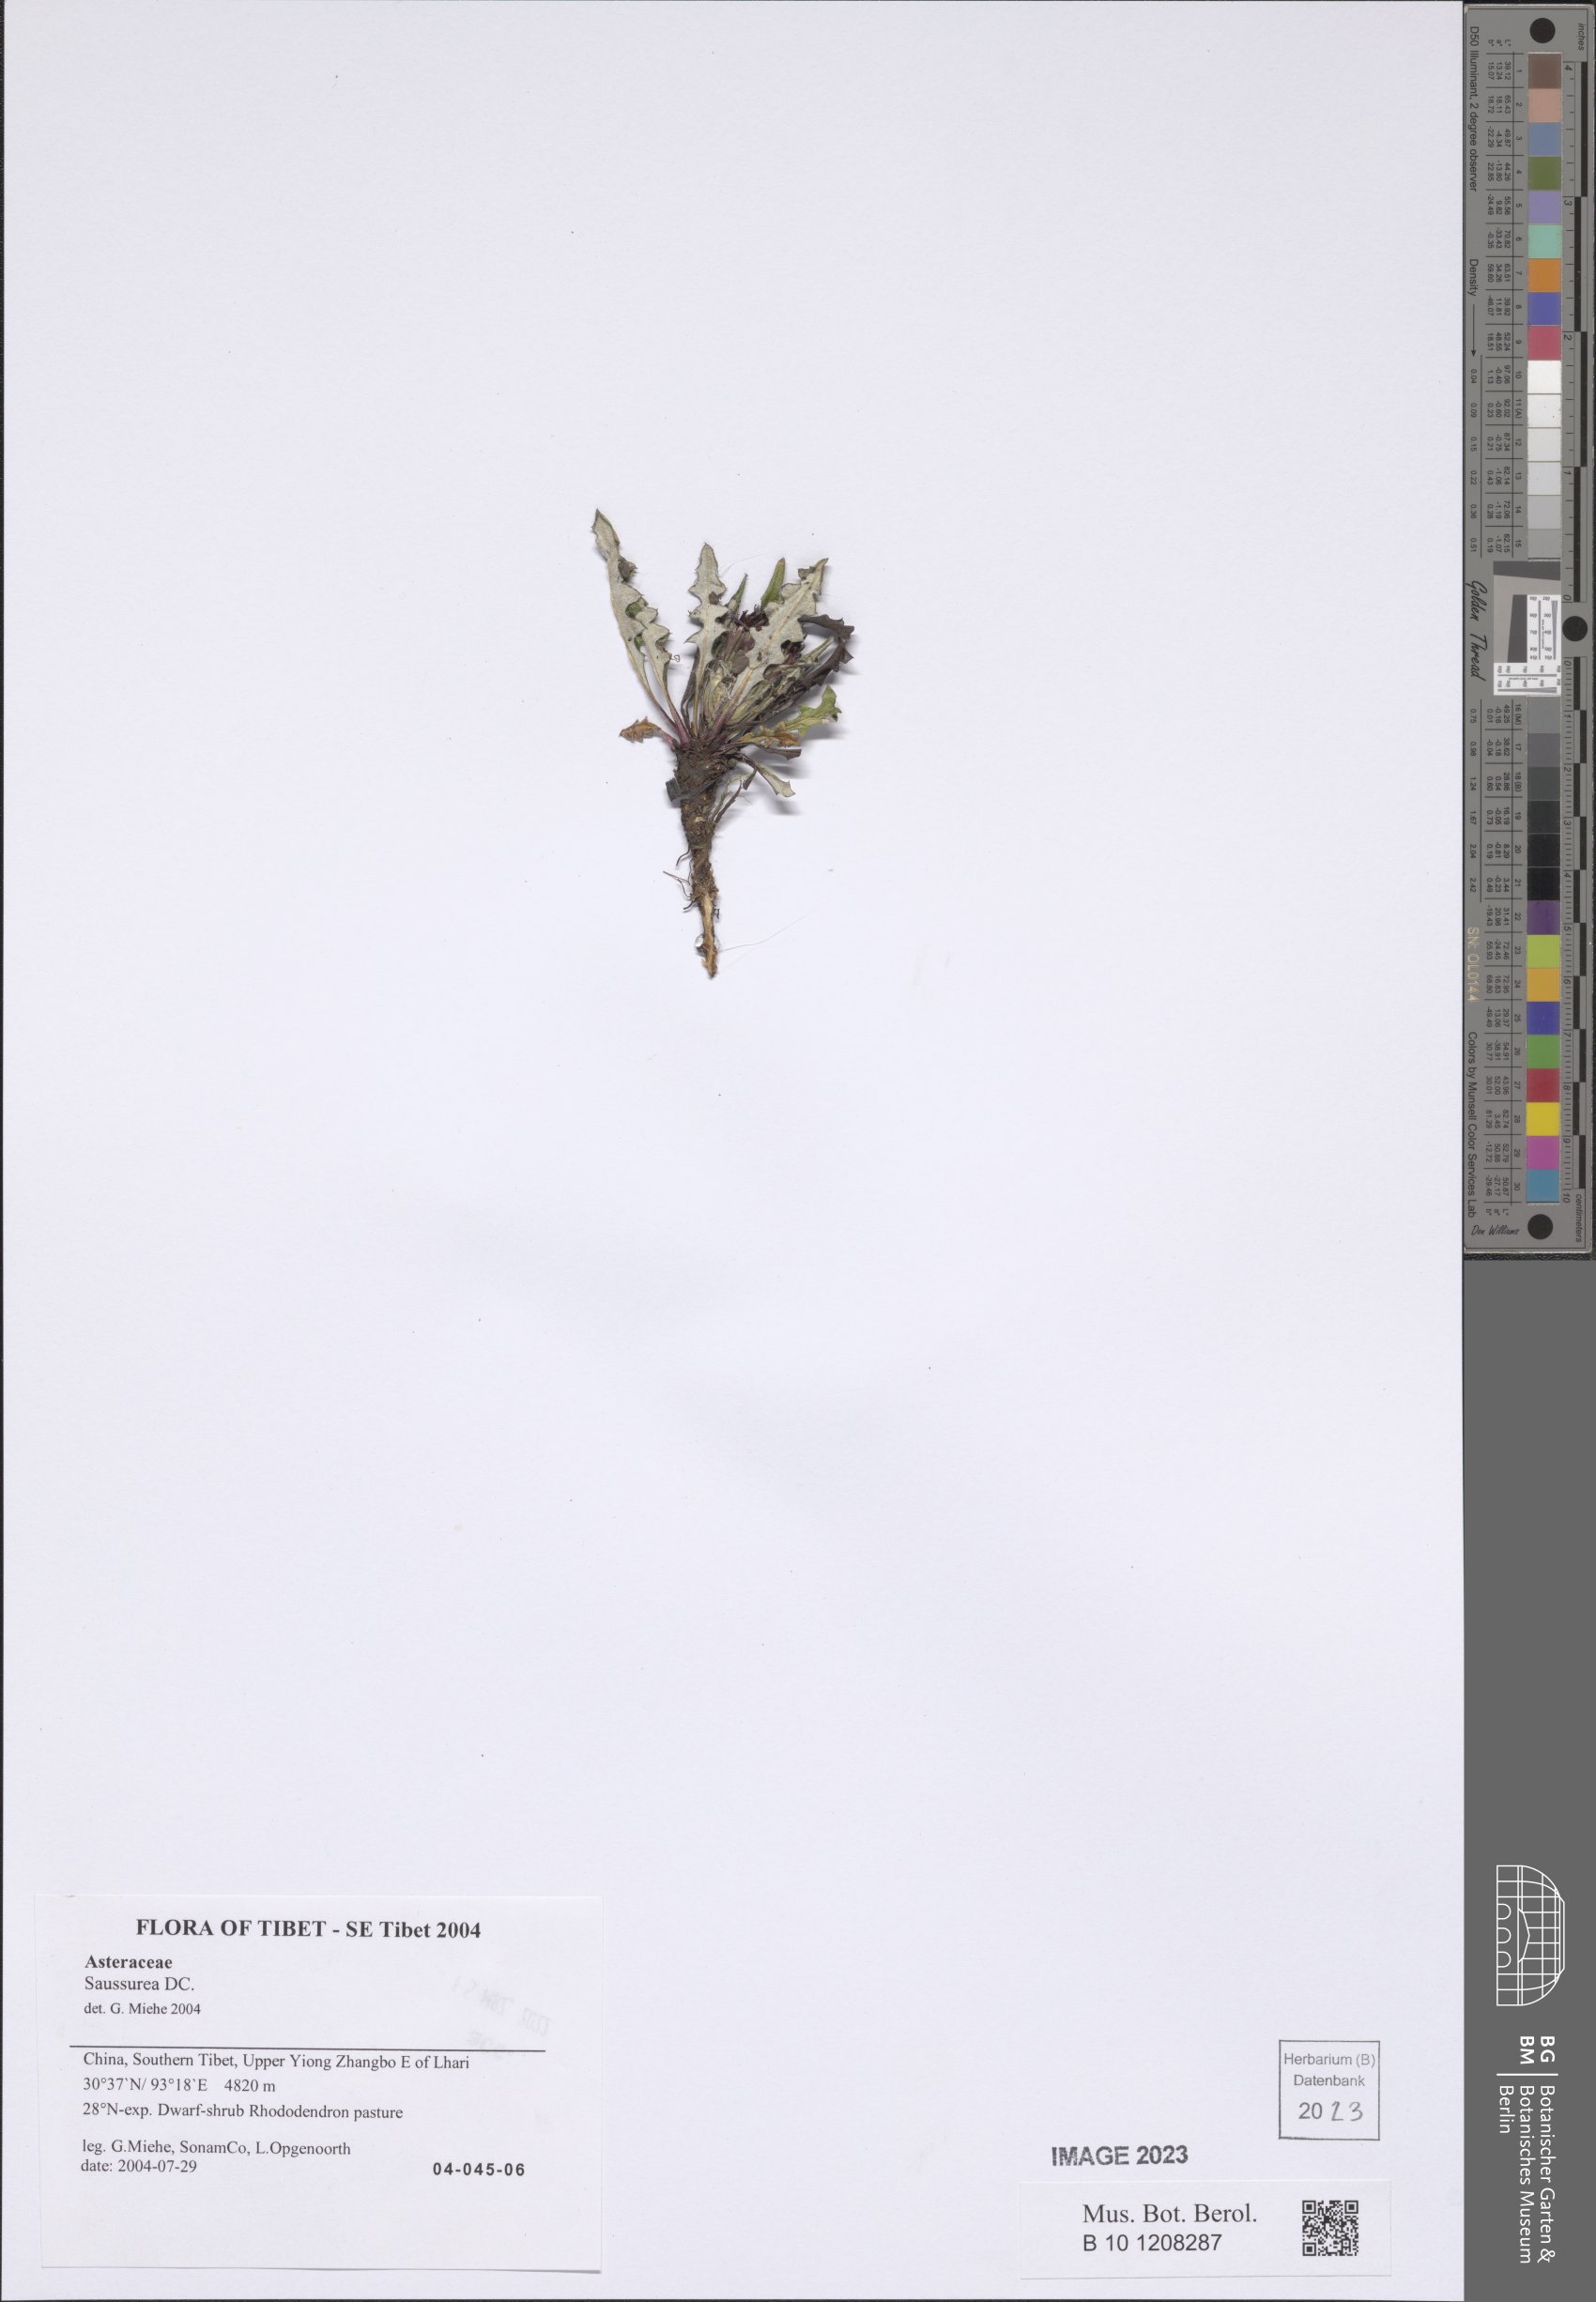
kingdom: Plantae
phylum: Tracheophyta
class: Magnoliopsida
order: Asterales
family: Asteraceae
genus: Saussurea
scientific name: Saussurea
